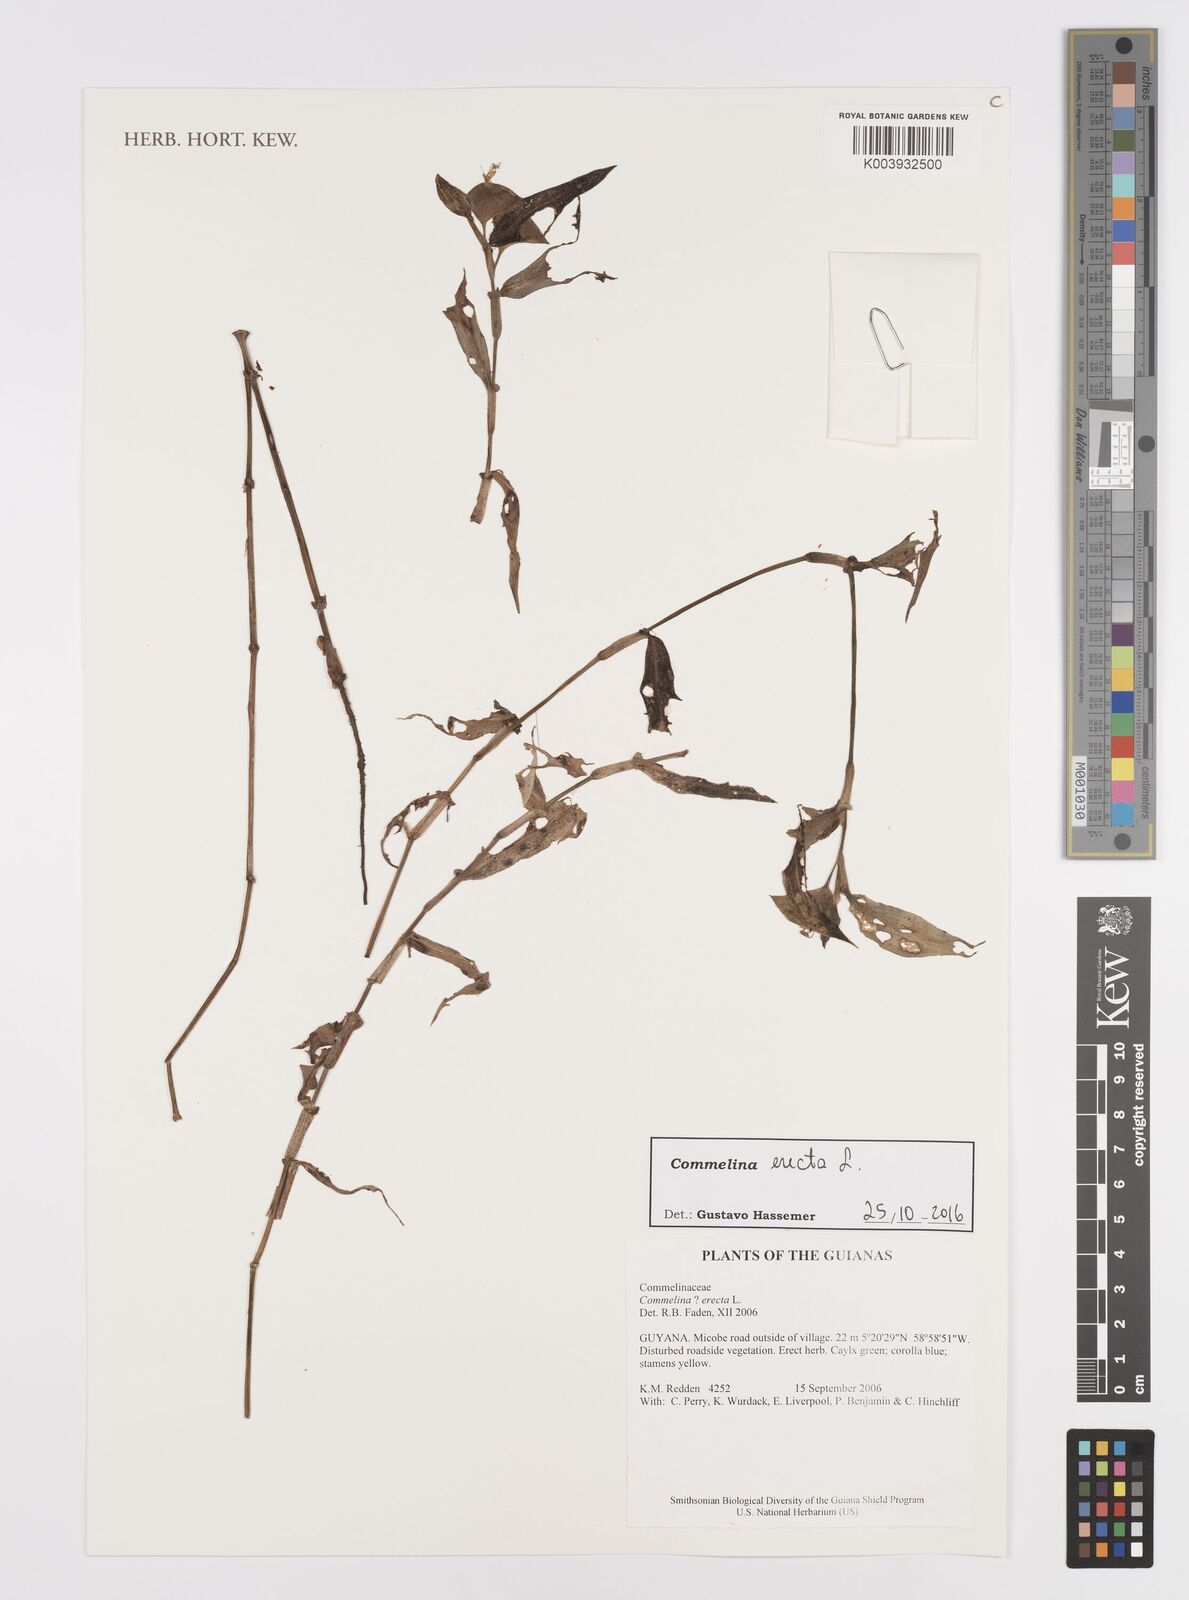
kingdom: Plantae
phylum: Tracheophyta
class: Liliopsida
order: Commelinales
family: Commelinaceae
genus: Commelina
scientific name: Commelina erecta
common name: Blousel blommetjie
